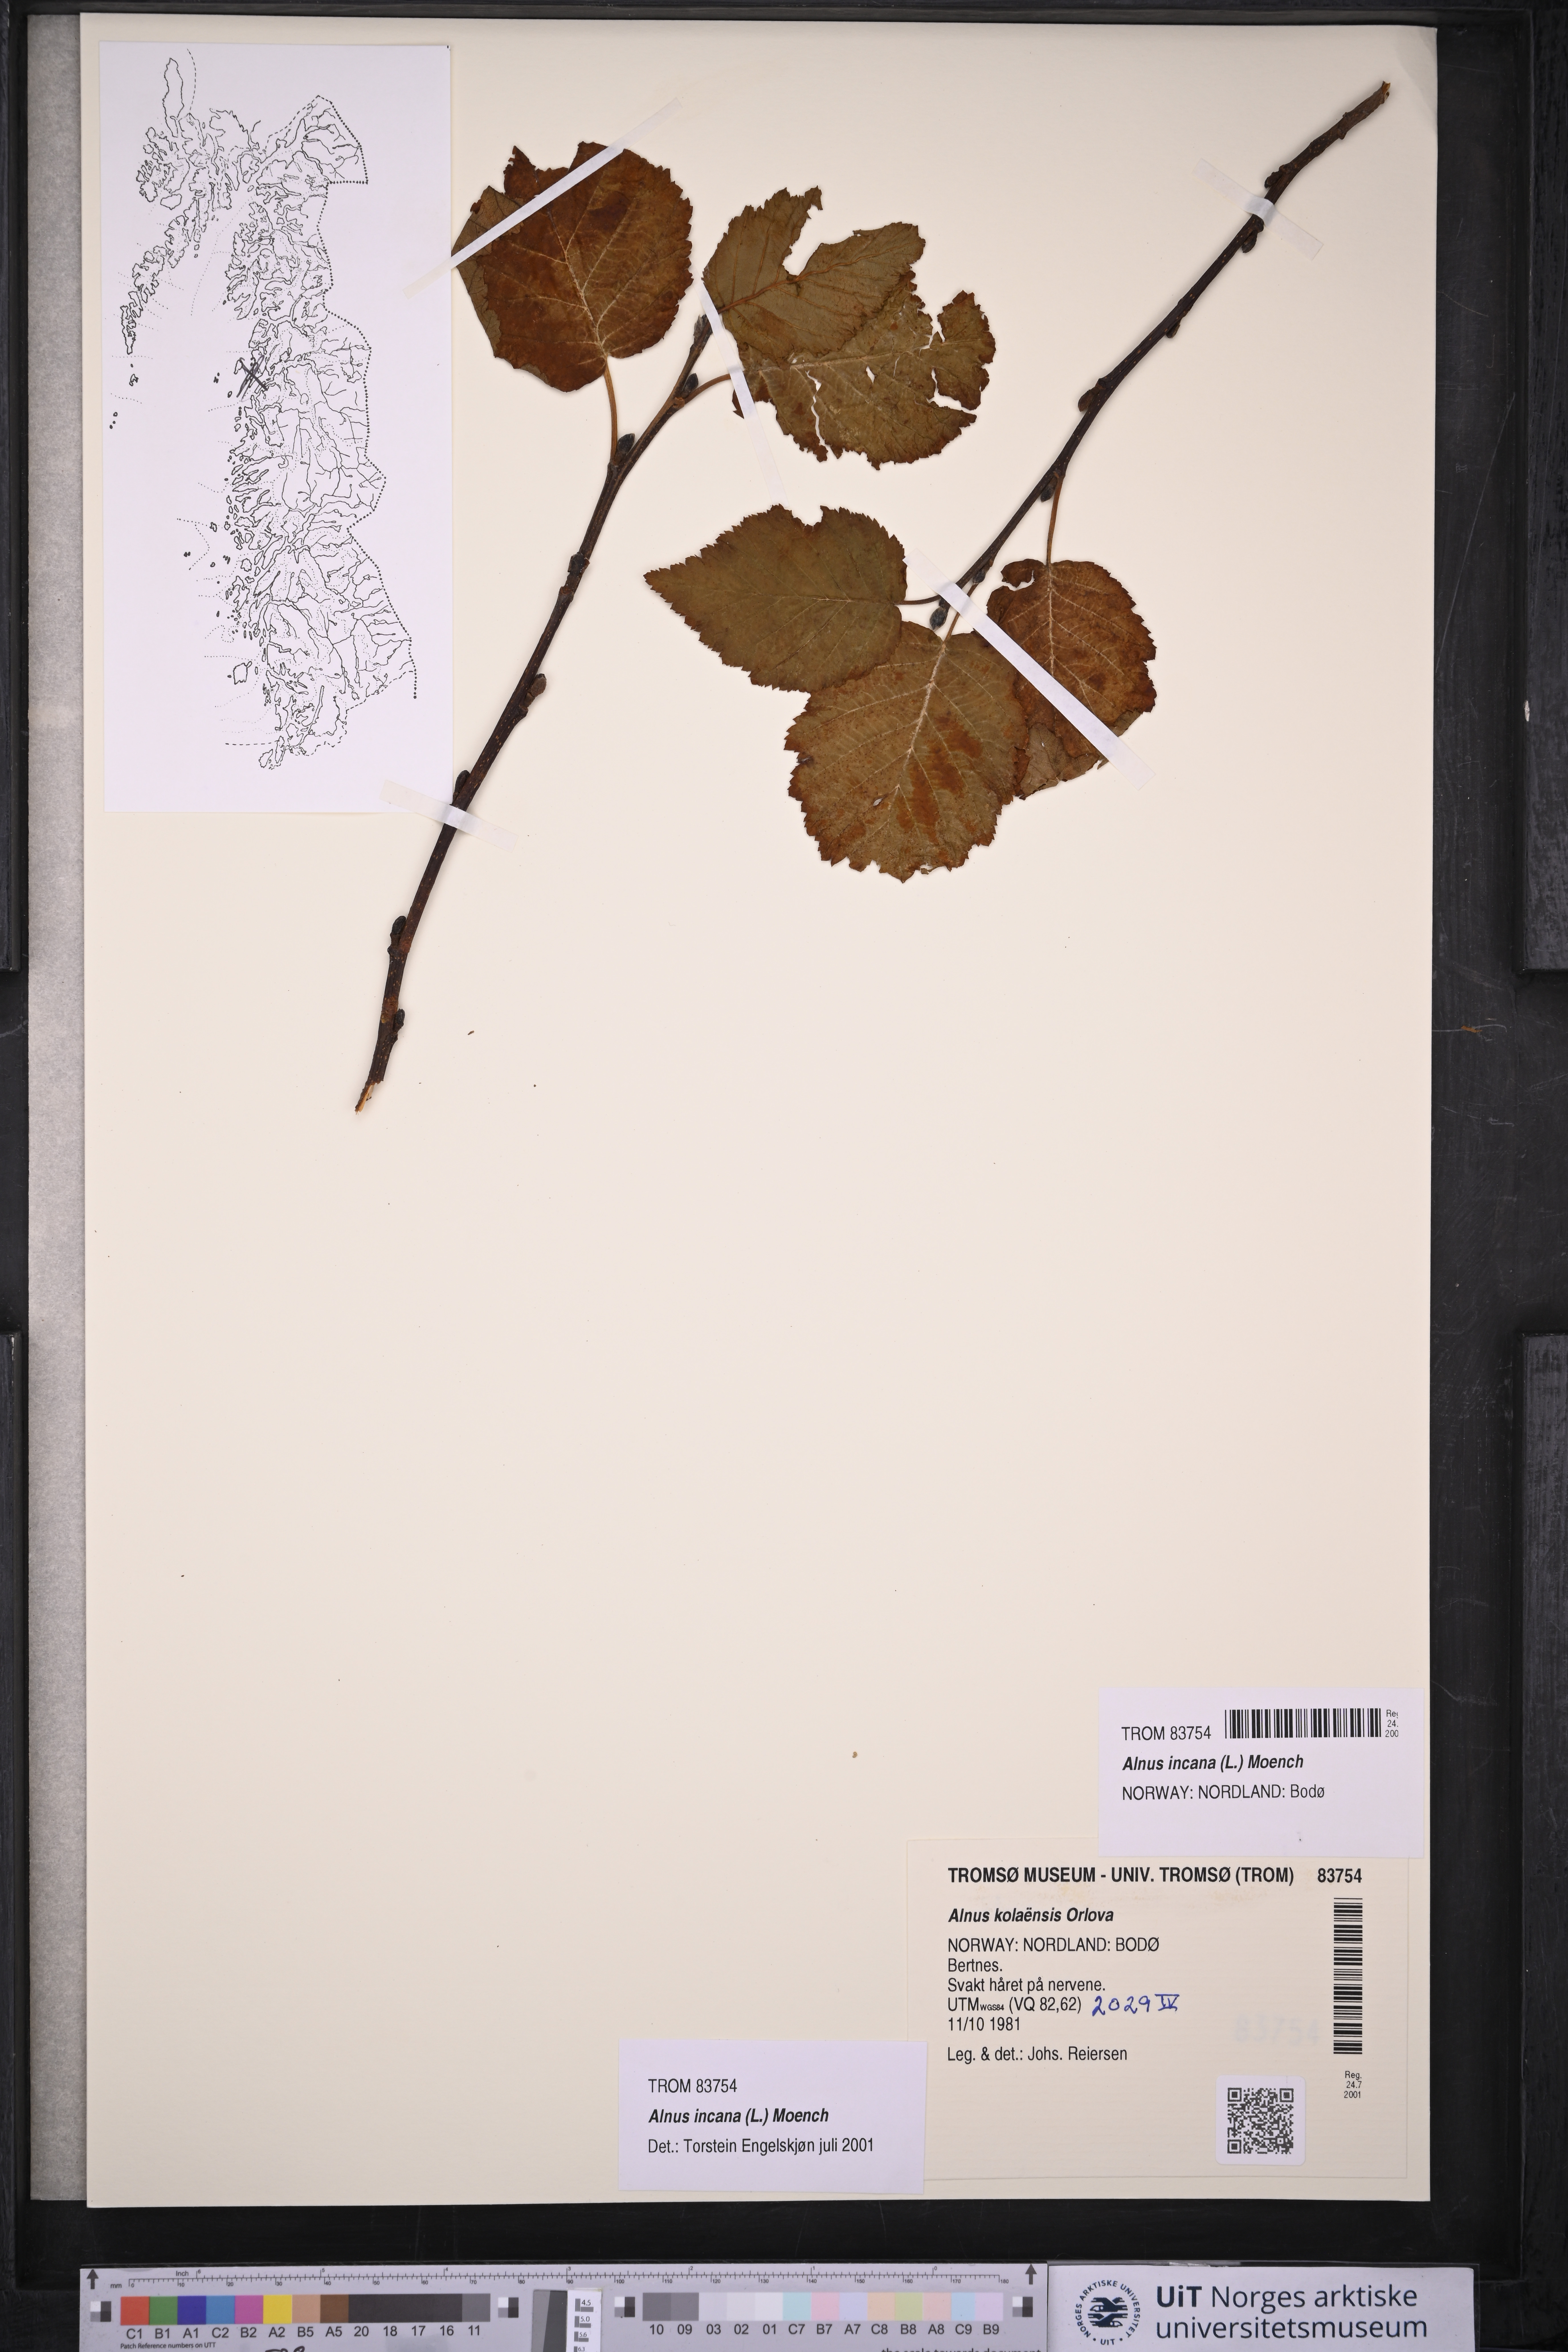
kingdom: Plantae
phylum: Tracheophyta
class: Magnoliopsida
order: Fagales
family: Betulaceae
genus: Alnus
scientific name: Alnus incana
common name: Grey alder
